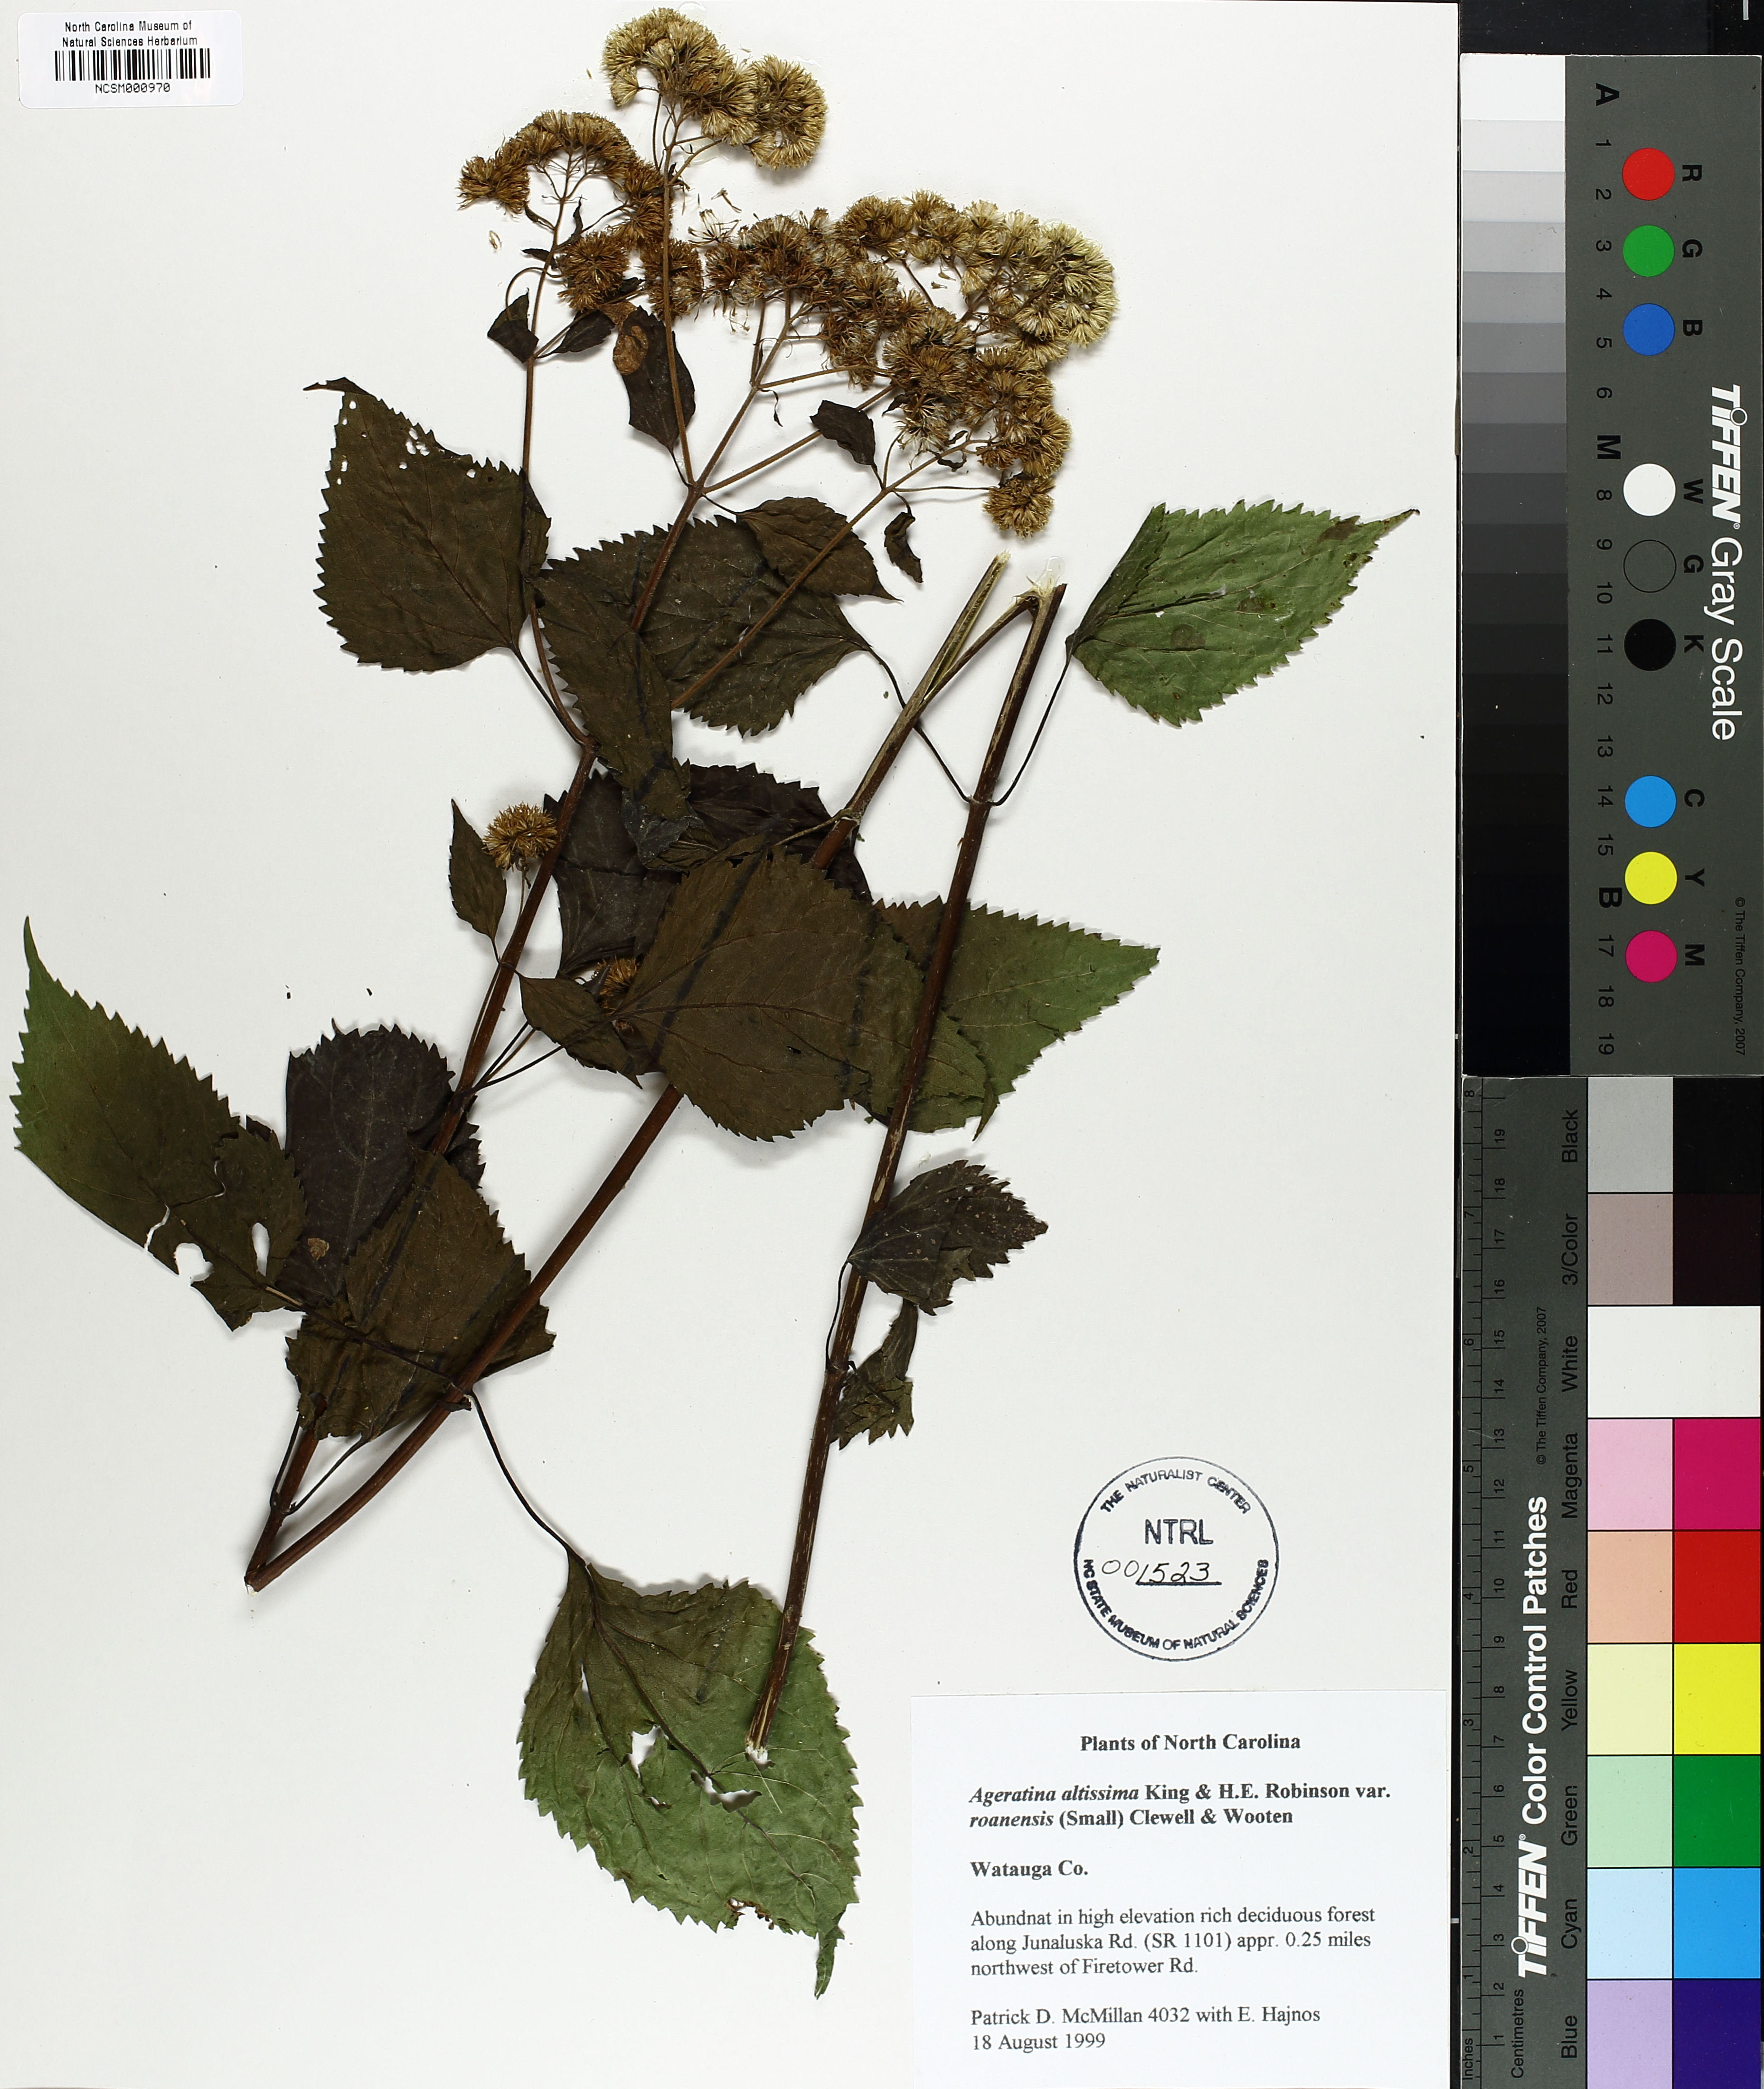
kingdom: Plantae
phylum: Tracheophyta
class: Magnoliopsida
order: Asterales
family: Asteraceae
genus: Ageratina
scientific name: Ageratina roanensis
